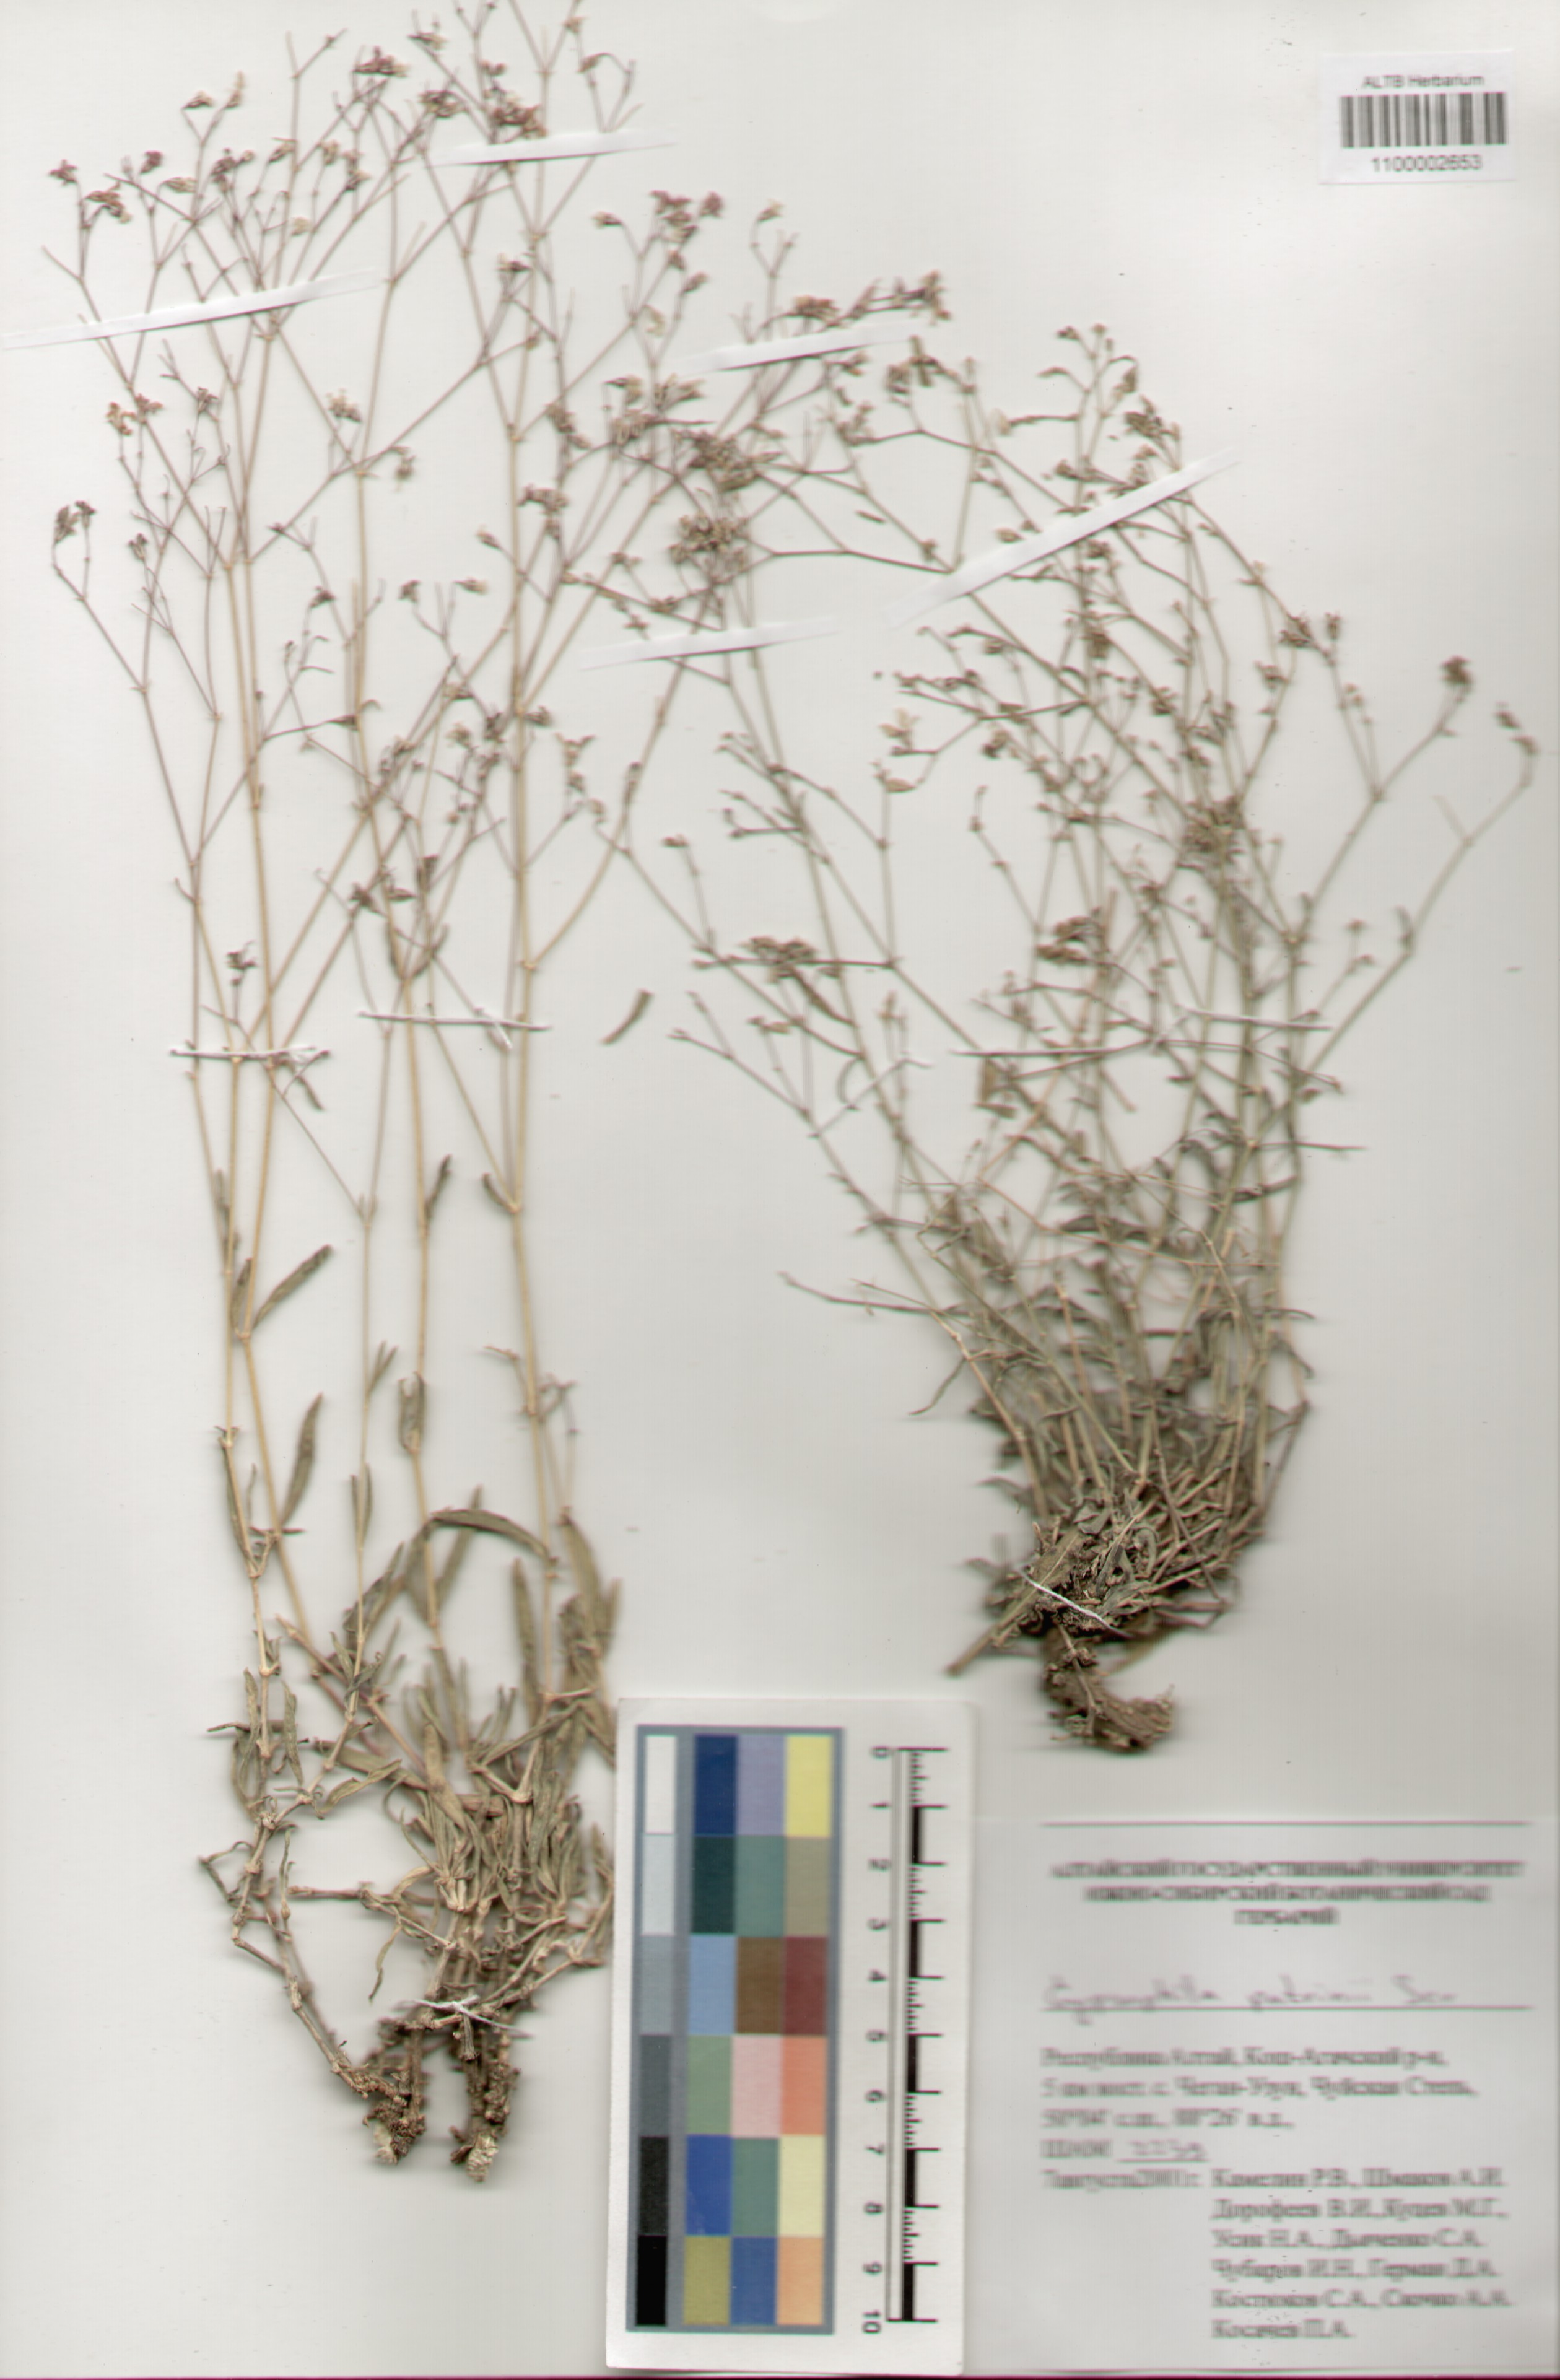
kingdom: Plantae
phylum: Tracheophyta
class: Magnoliopsida
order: Caryophyllales
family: Caryophyllaceae
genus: Gypsophila
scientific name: Gypsophila patrinii
